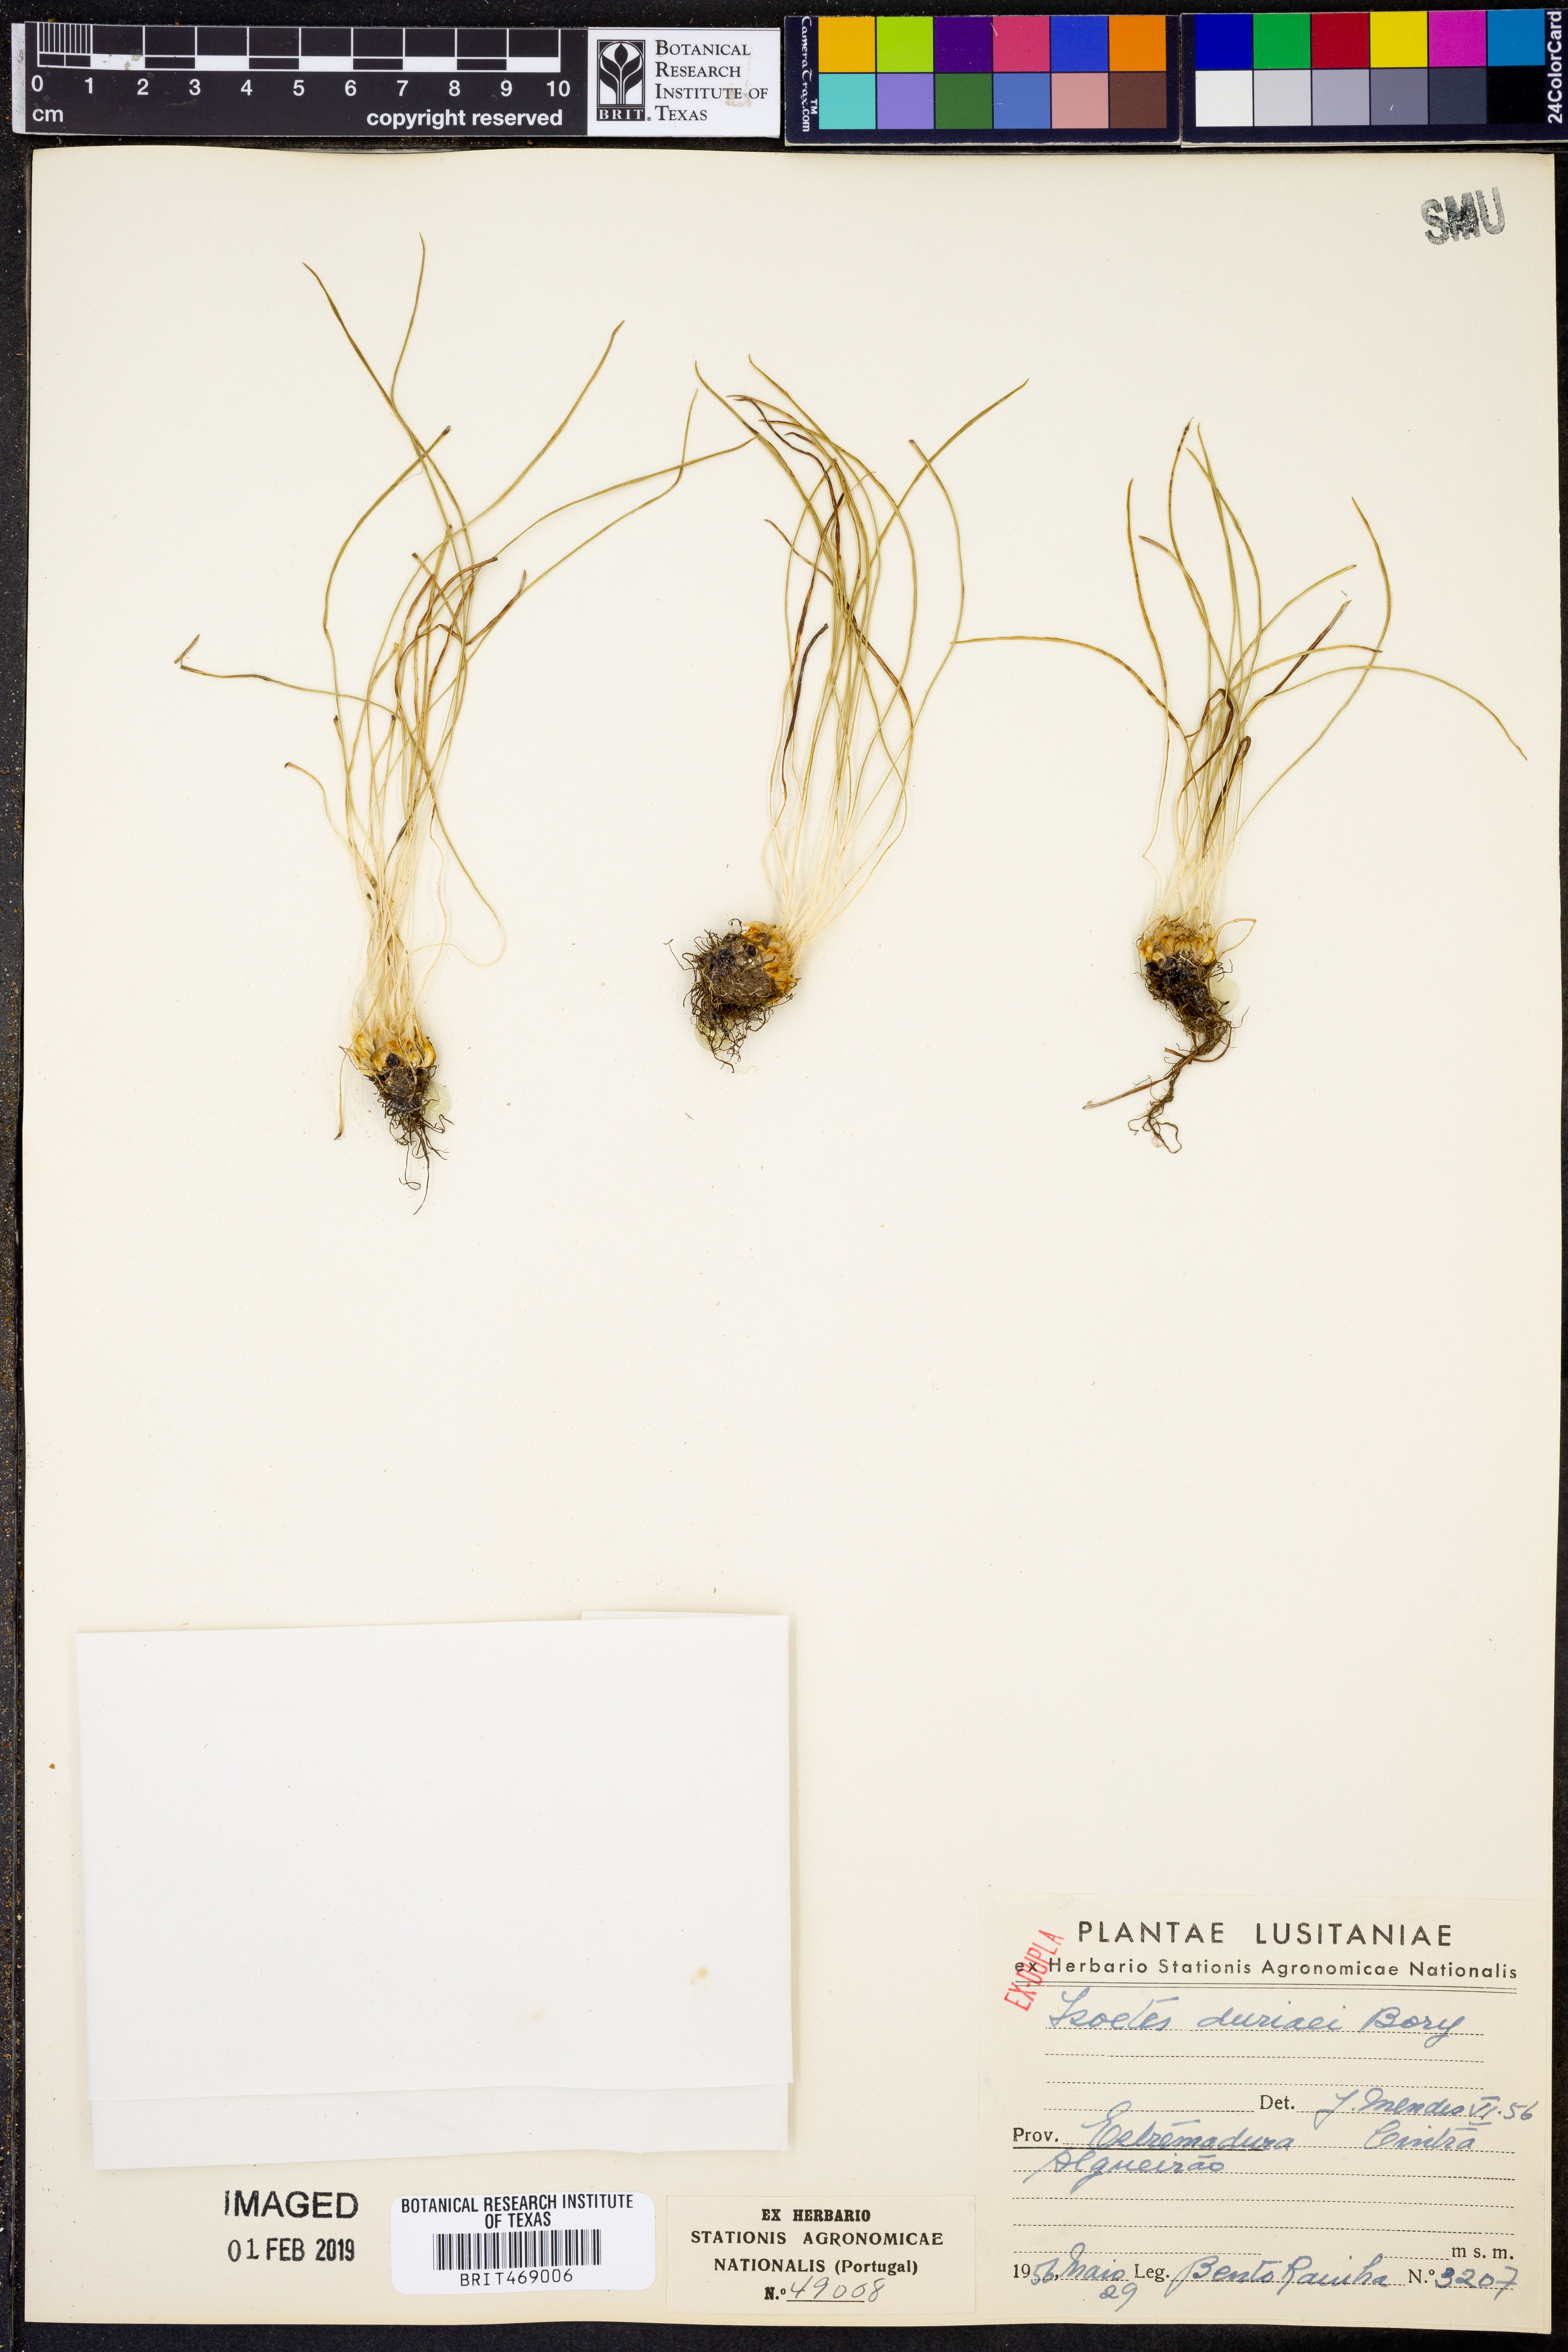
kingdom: Plantae
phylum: Tracheophyta
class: Lycopodiopsida
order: Isoetales
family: Isoetaceae
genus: Isoetes
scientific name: Isoetes duriei
